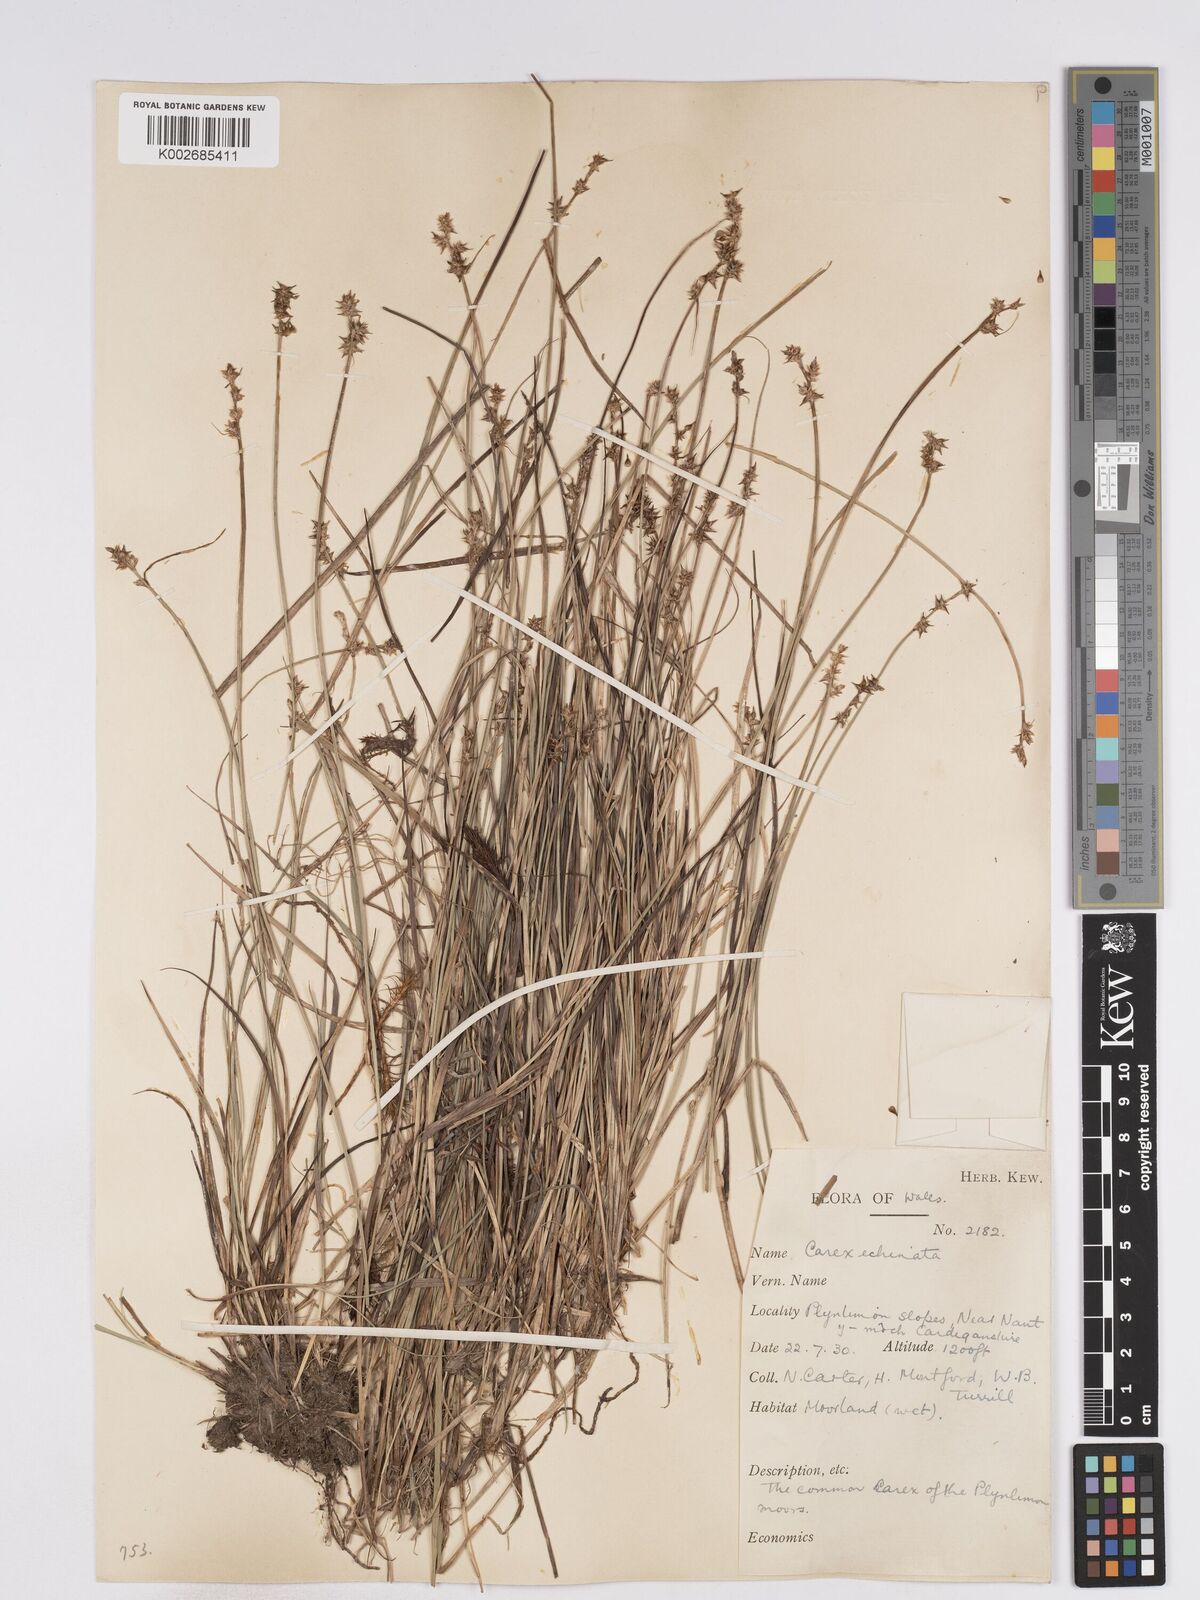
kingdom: Plantae
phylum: Tracheophyta
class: Liliopsida
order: Poales
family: Cyperaceae
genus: Carex
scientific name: Carex echinata
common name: Star sedge
